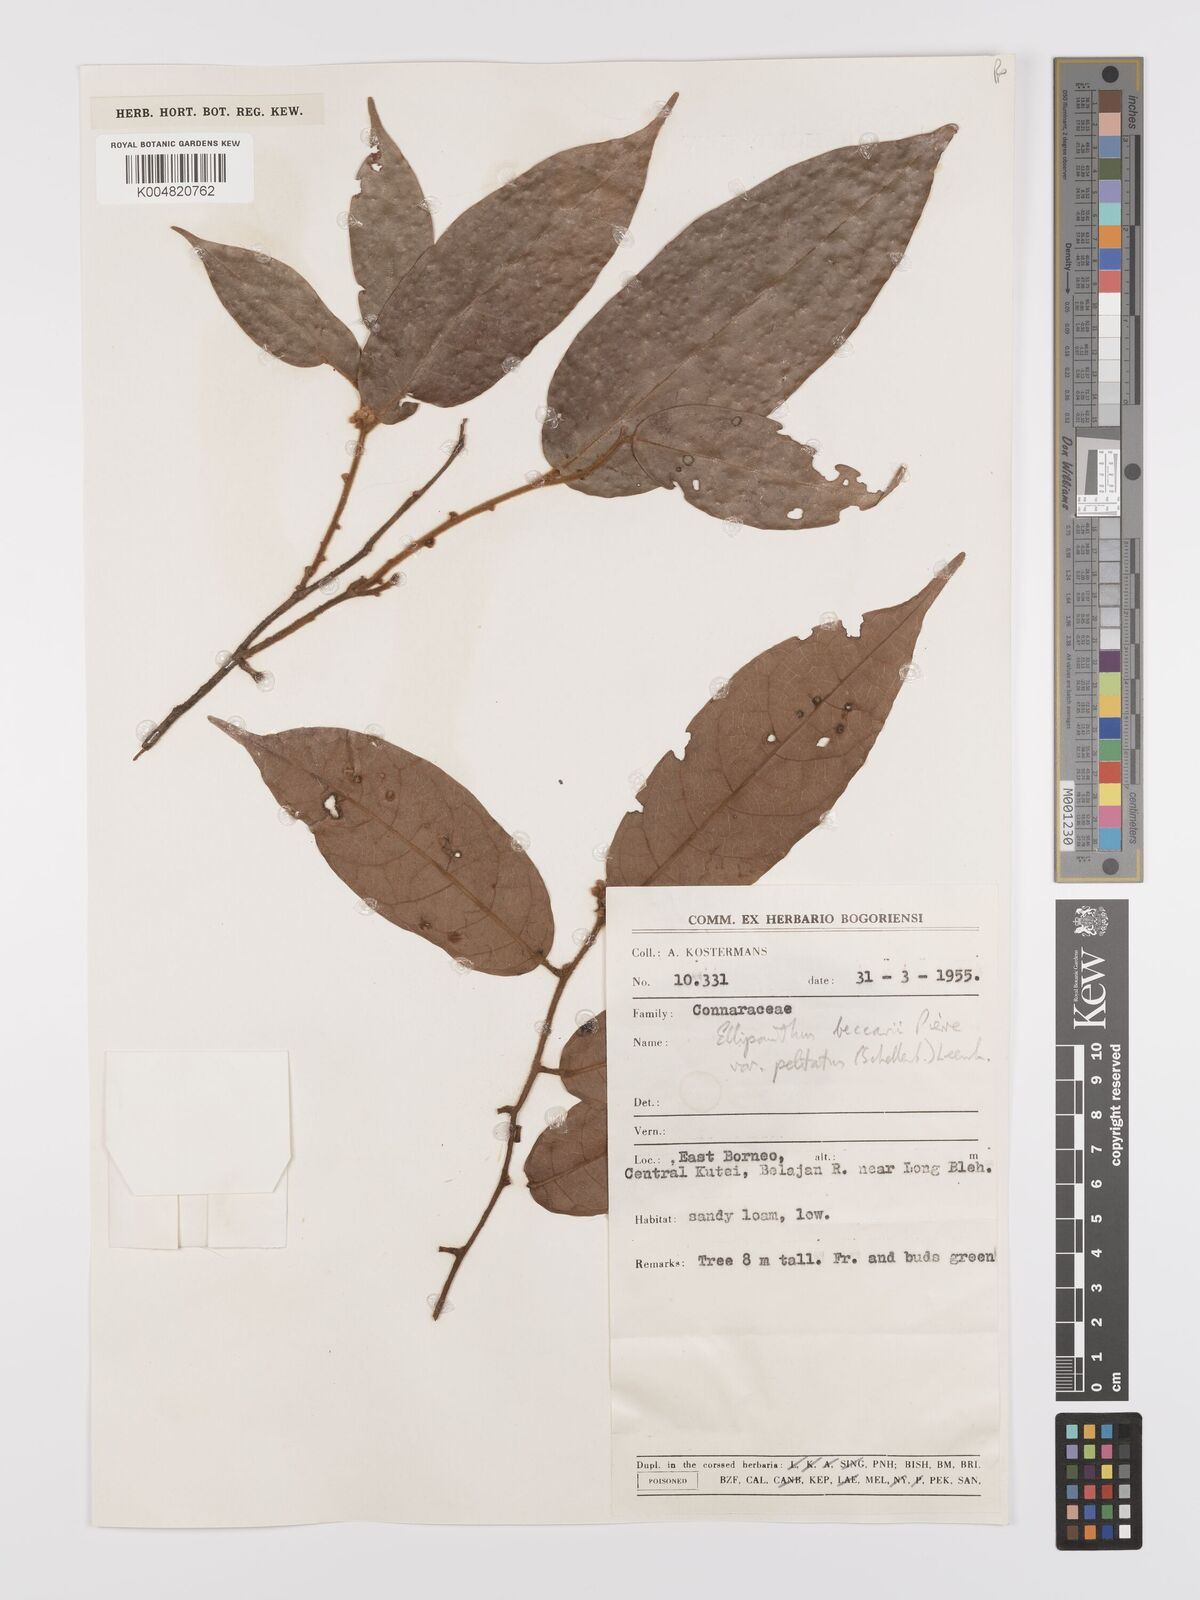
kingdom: Plantae
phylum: Tracheophyta
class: Magnoliopsida
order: Oxalidales
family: Connaraceae
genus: Ellipanthus
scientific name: Ellipanthus beccarii
